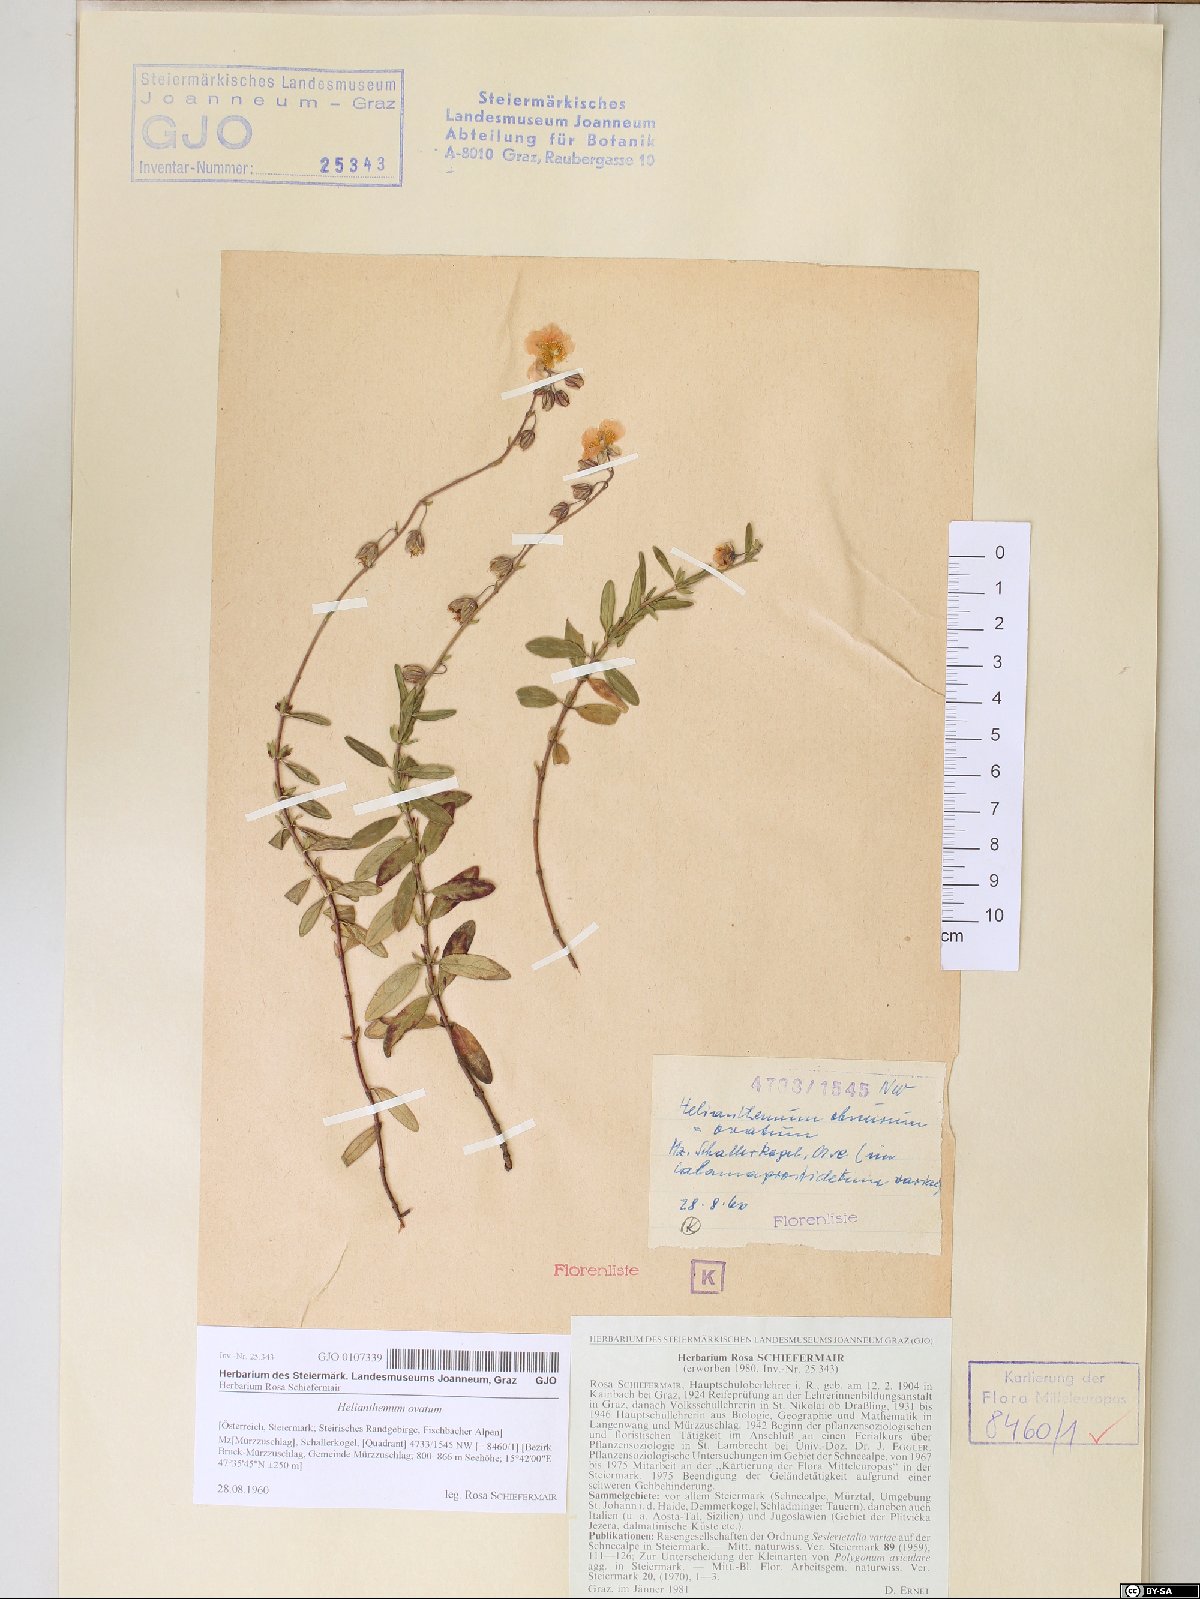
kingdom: Plantae
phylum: Tracheophyta
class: Magnoliopsida
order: Malvales
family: Cistaceae
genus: Helianthemum
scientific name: Helianthemum nummularium
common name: Common rock-rose
